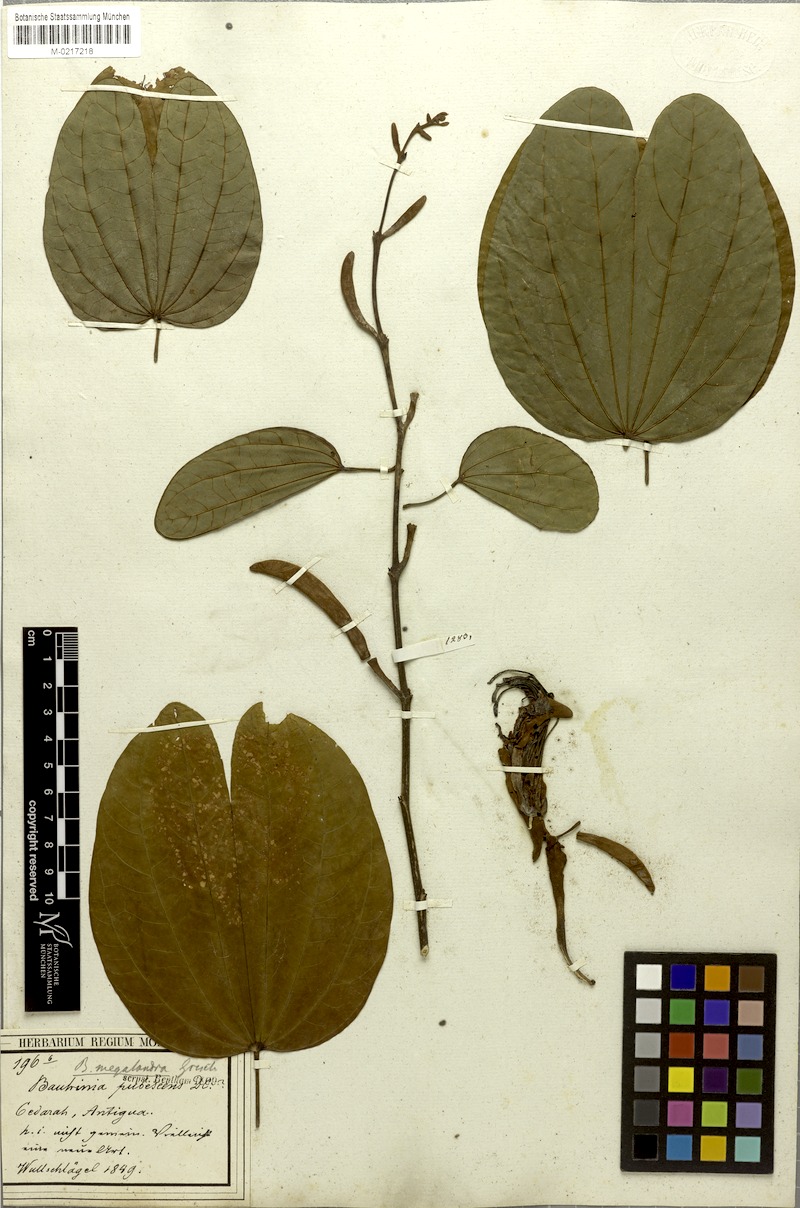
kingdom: Plantae
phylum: Tracheophyta
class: Magnoliopsida
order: Fabales
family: Fabaceae
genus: Bauhinia
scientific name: Bauhinia multinervia
